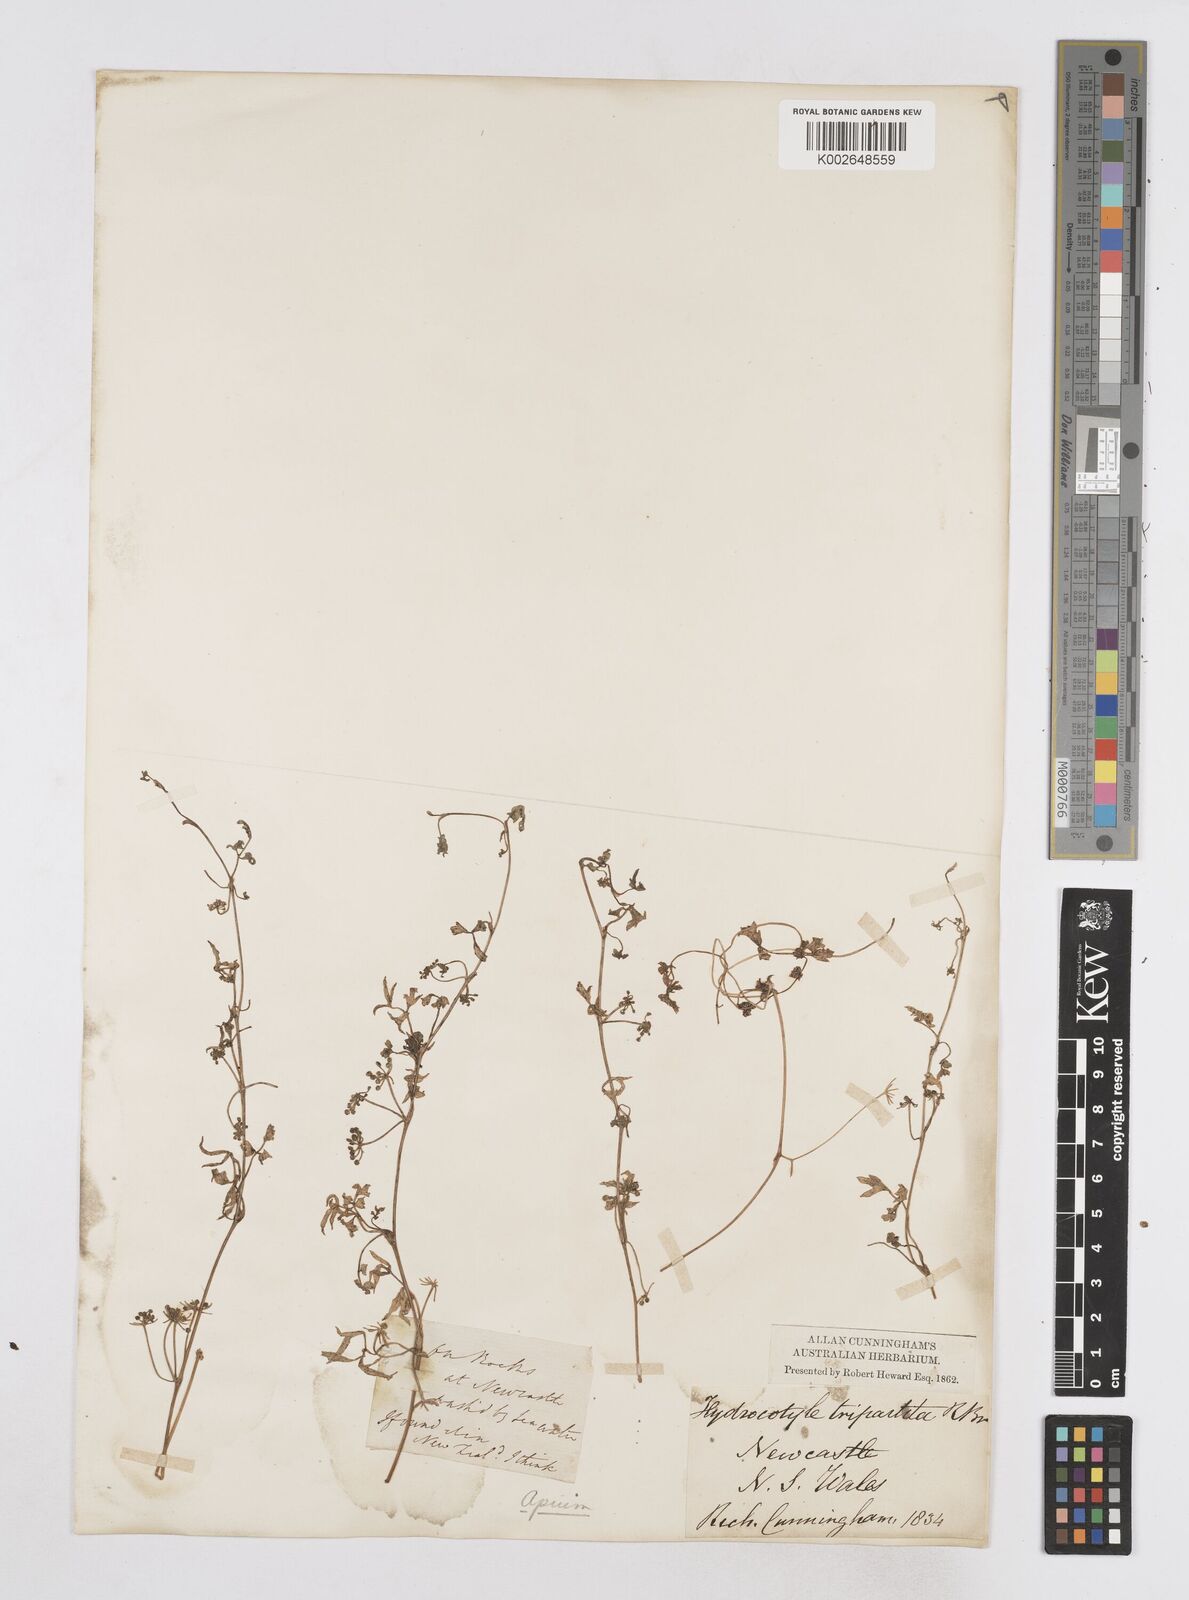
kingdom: Plantae
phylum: Tracheophyta
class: Magnoliopsida
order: Apiales
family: Apiaceae
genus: Apium
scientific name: Apium prostratum
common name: Prostrate marshwort
